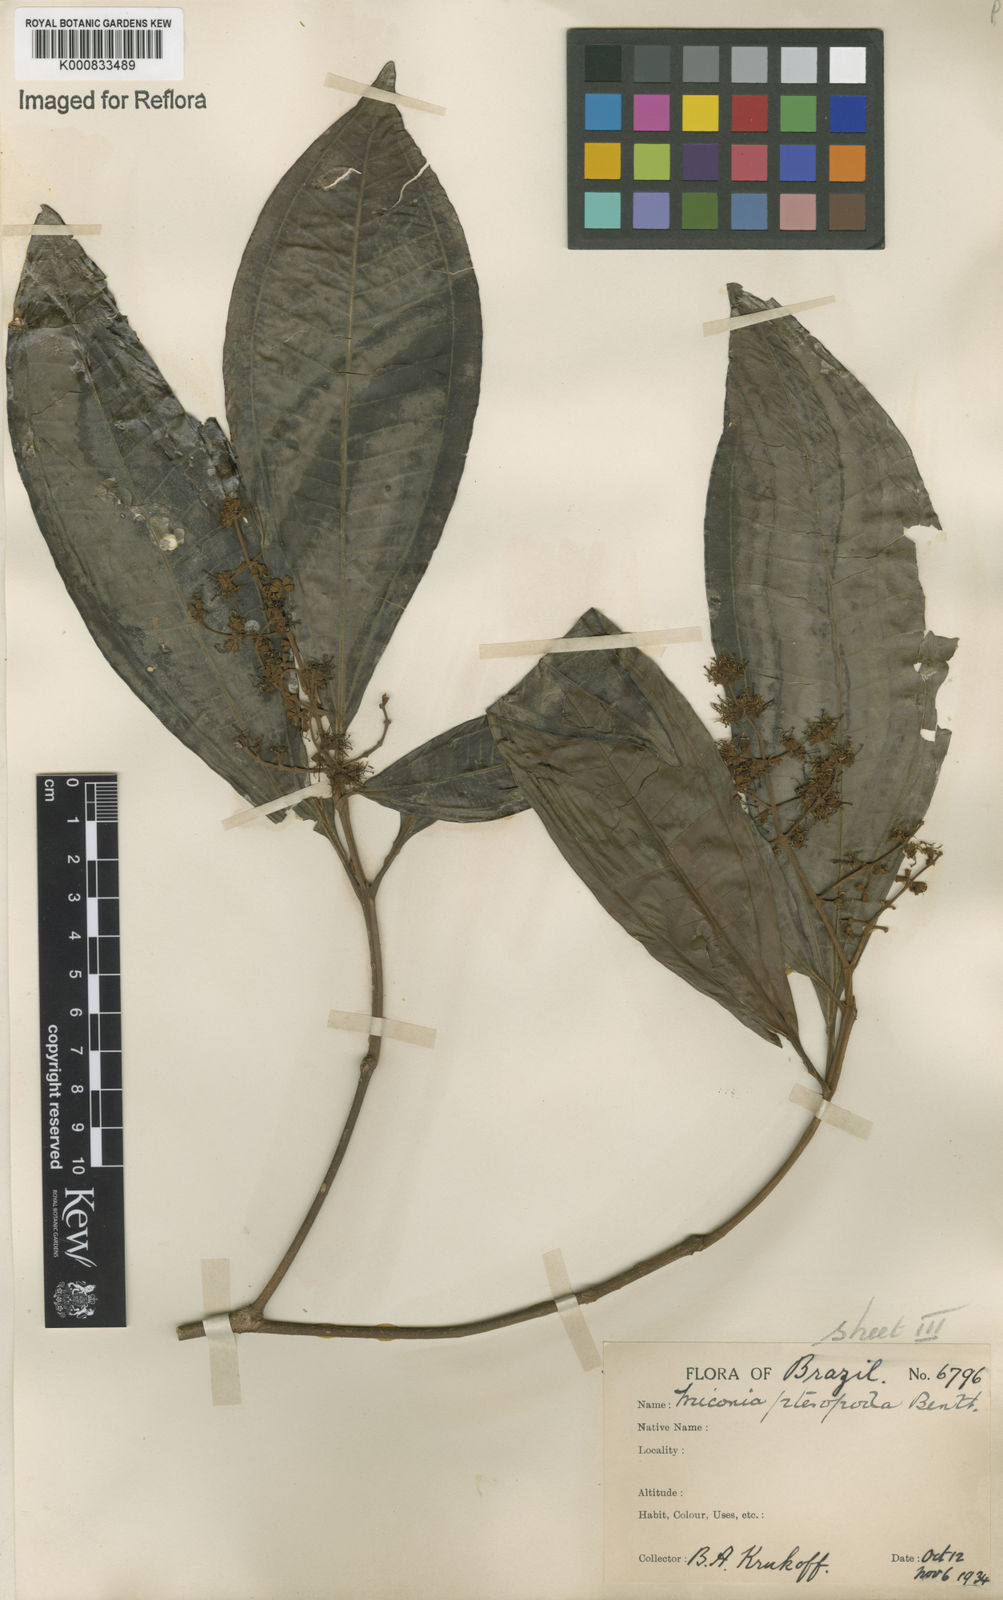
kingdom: Plantae
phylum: Tracheophyta
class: Magnoliopsida
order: Myrtales
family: Melastomataceae
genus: Miconia
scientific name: Miconia umbrosa
